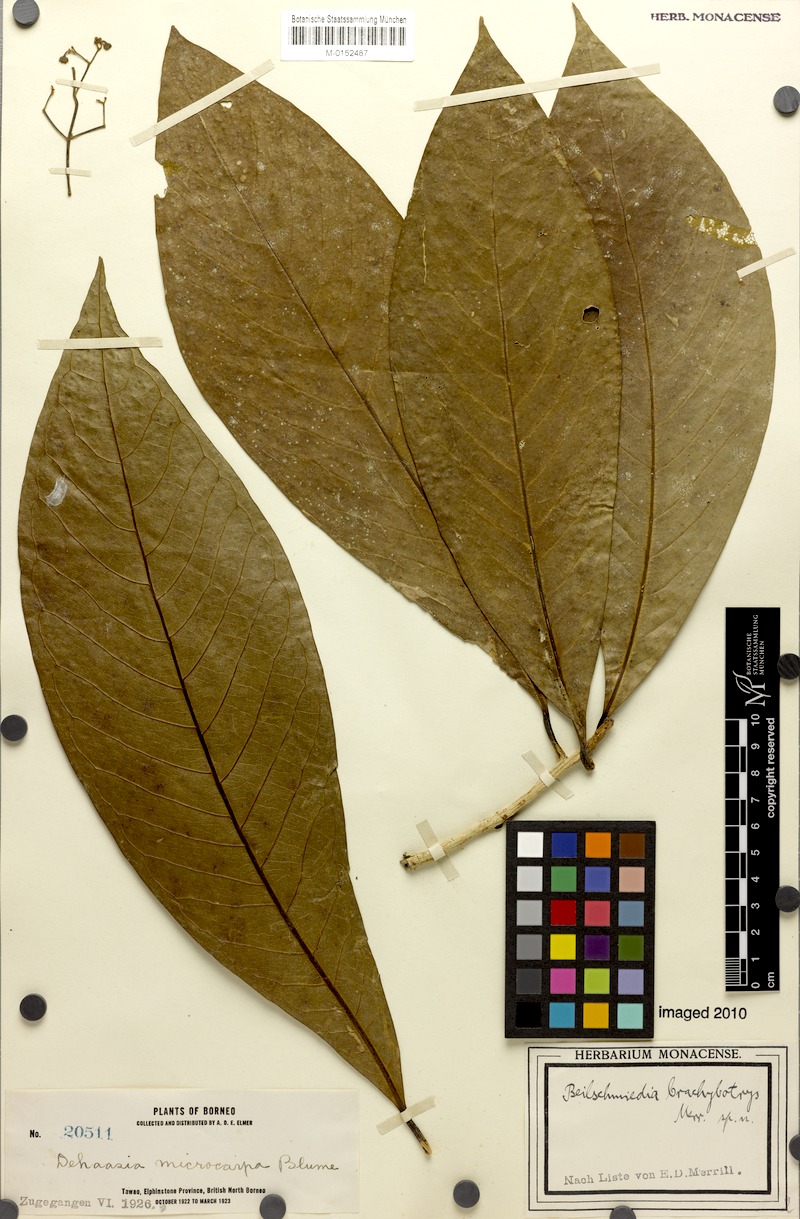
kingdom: Plantae
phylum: Tracheophyta
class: Magnoliopsida
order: Laurales
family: Lauraceae
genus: Dehaasia
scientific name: Dehaasia brachybotrys
